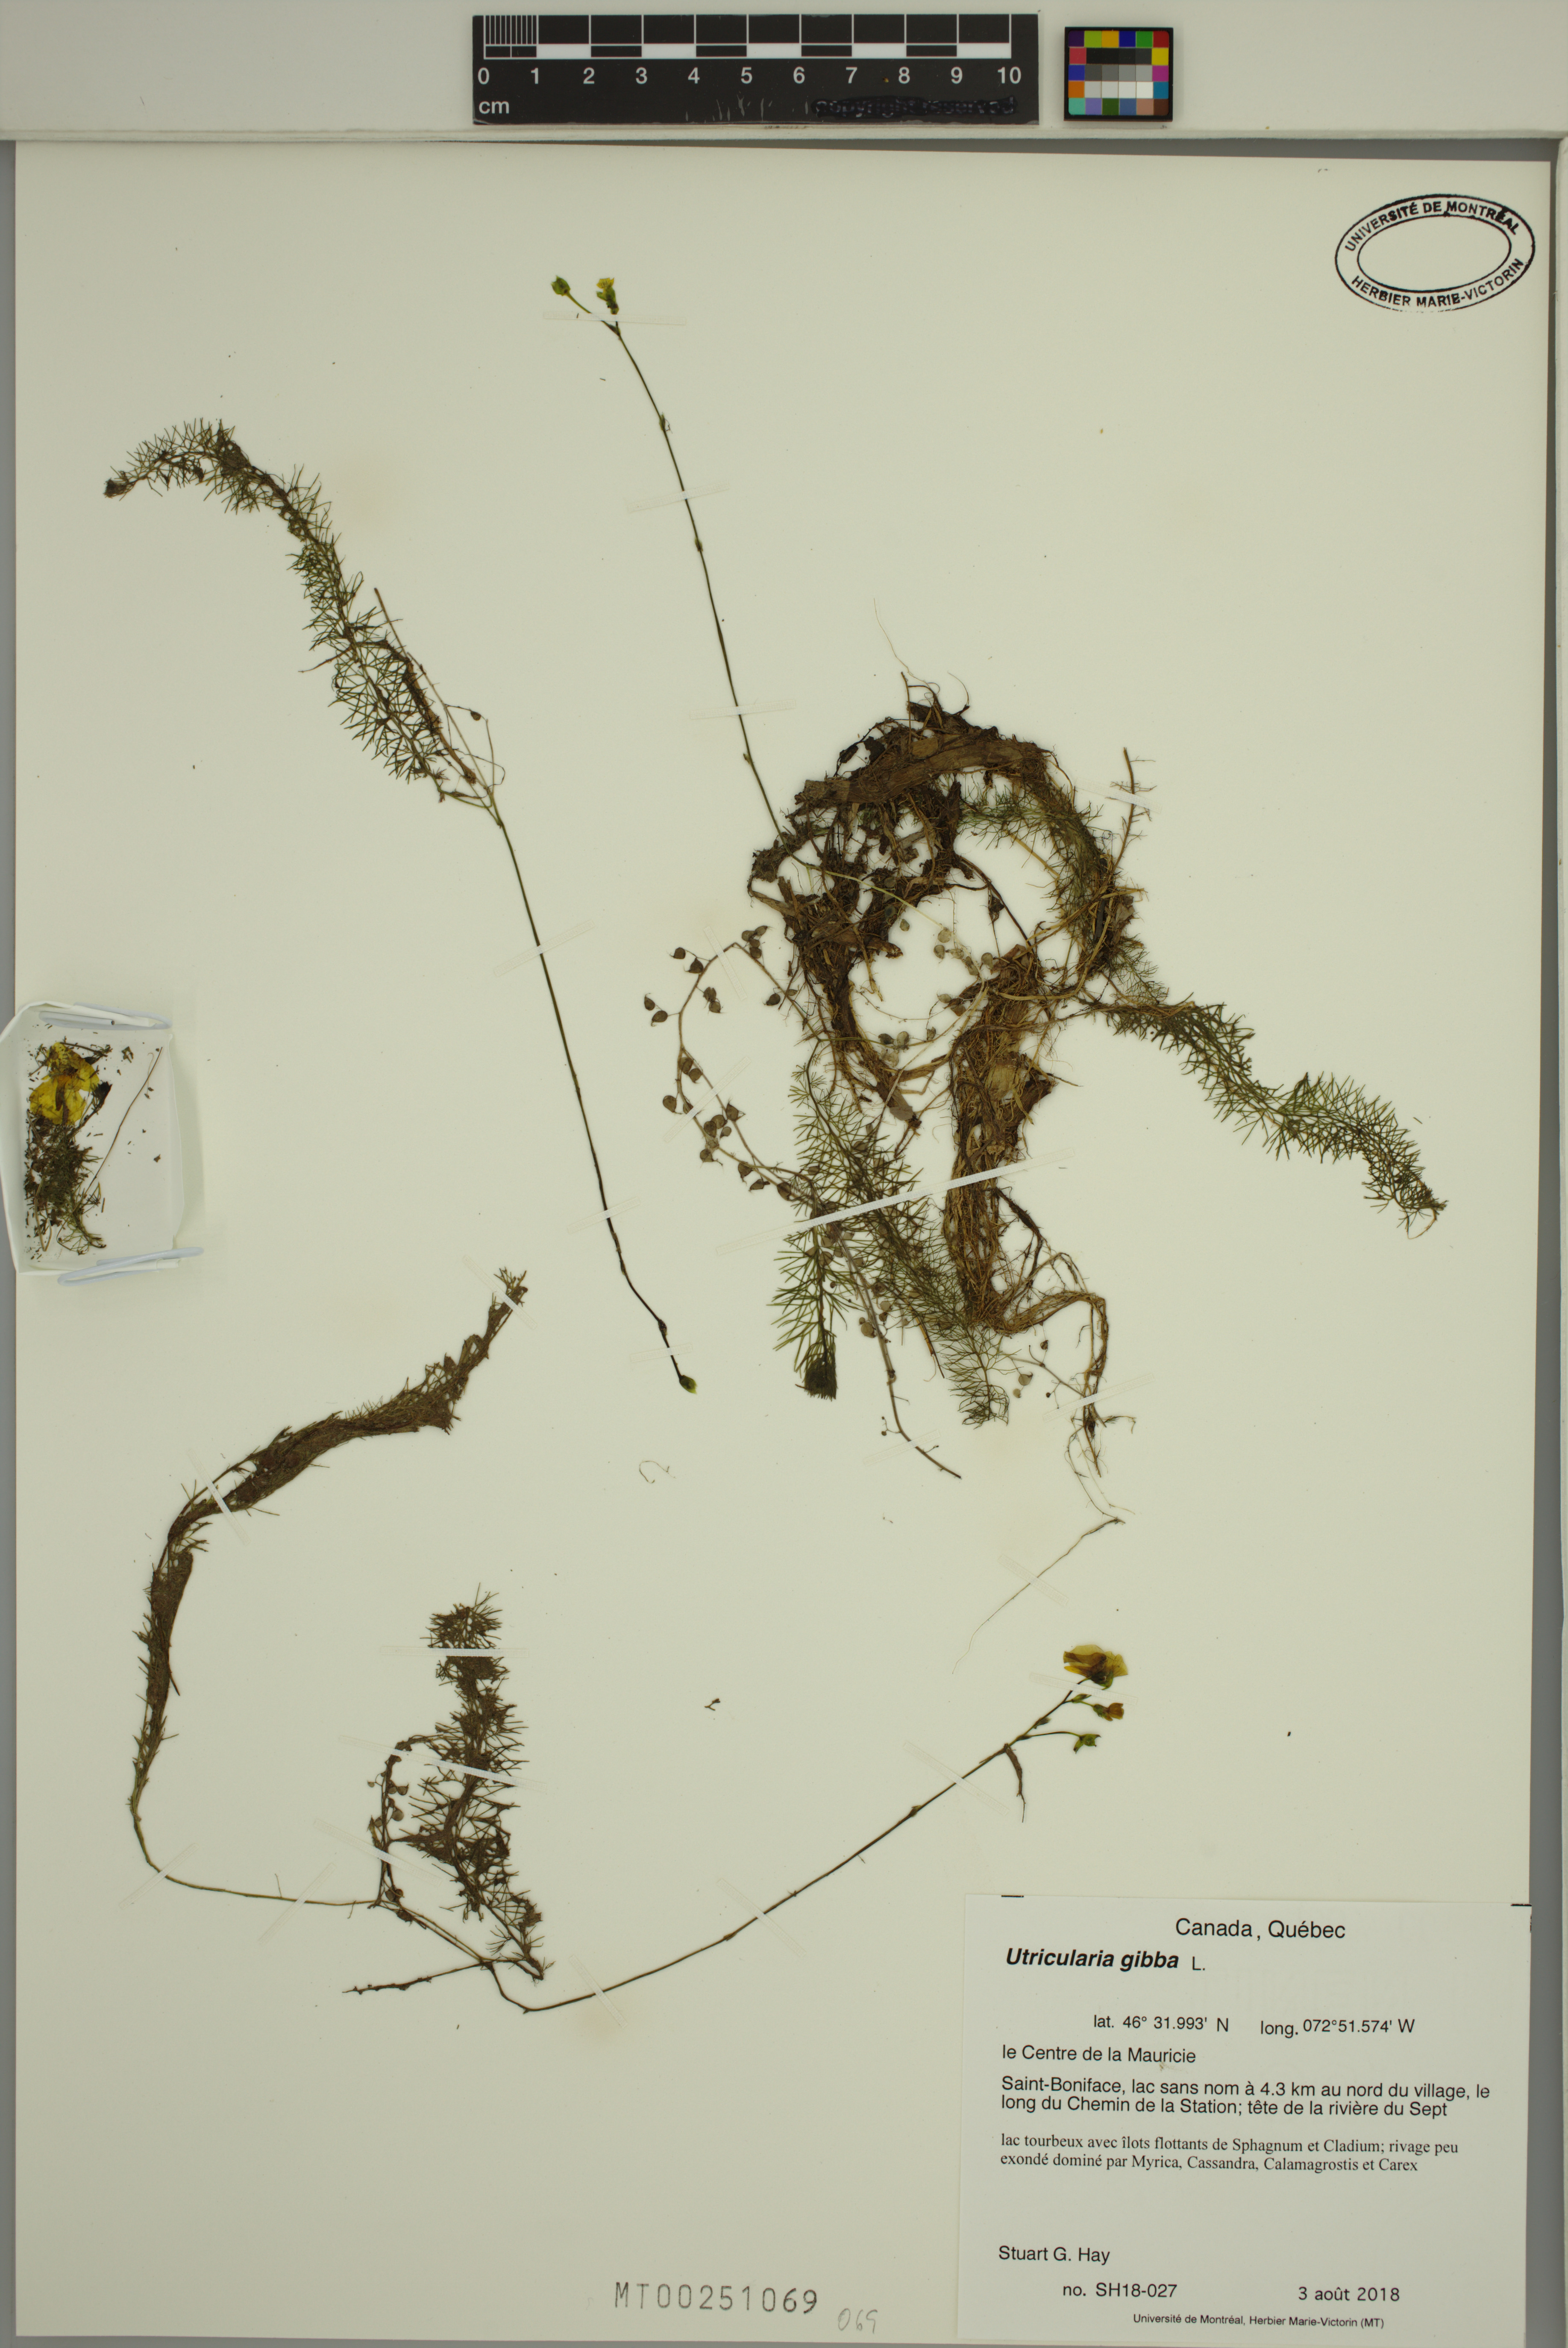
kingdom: Plantae
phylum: Tracheophyta
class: Magnoliopsida
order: Lamiales
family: Lentibulariaceae
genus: Utricularia
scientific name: Utricularia gibba
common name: Humped bladderwort
